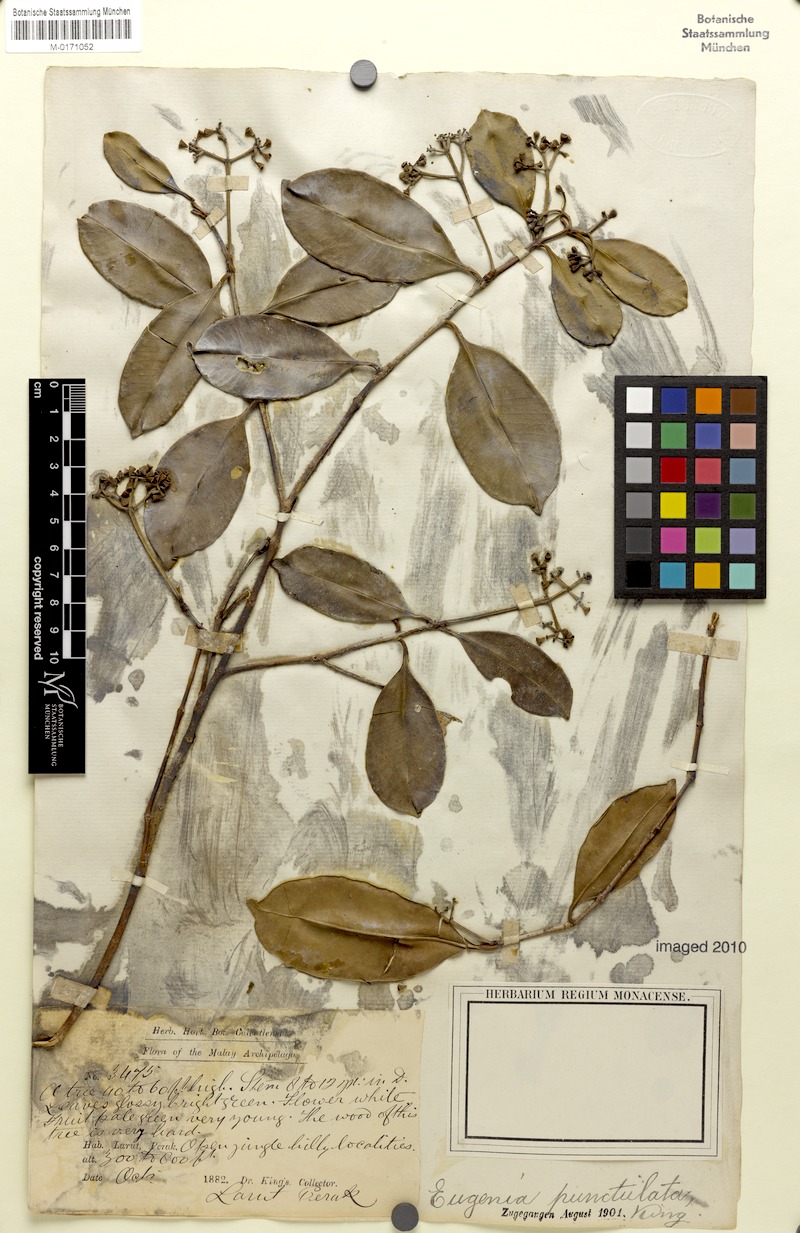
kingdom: Plantae
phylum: Tracheophyta
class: Magnoliopsida
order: Myrtales
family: Myrtaceae
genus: Syzygium
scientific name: Syzygium incarnatum
